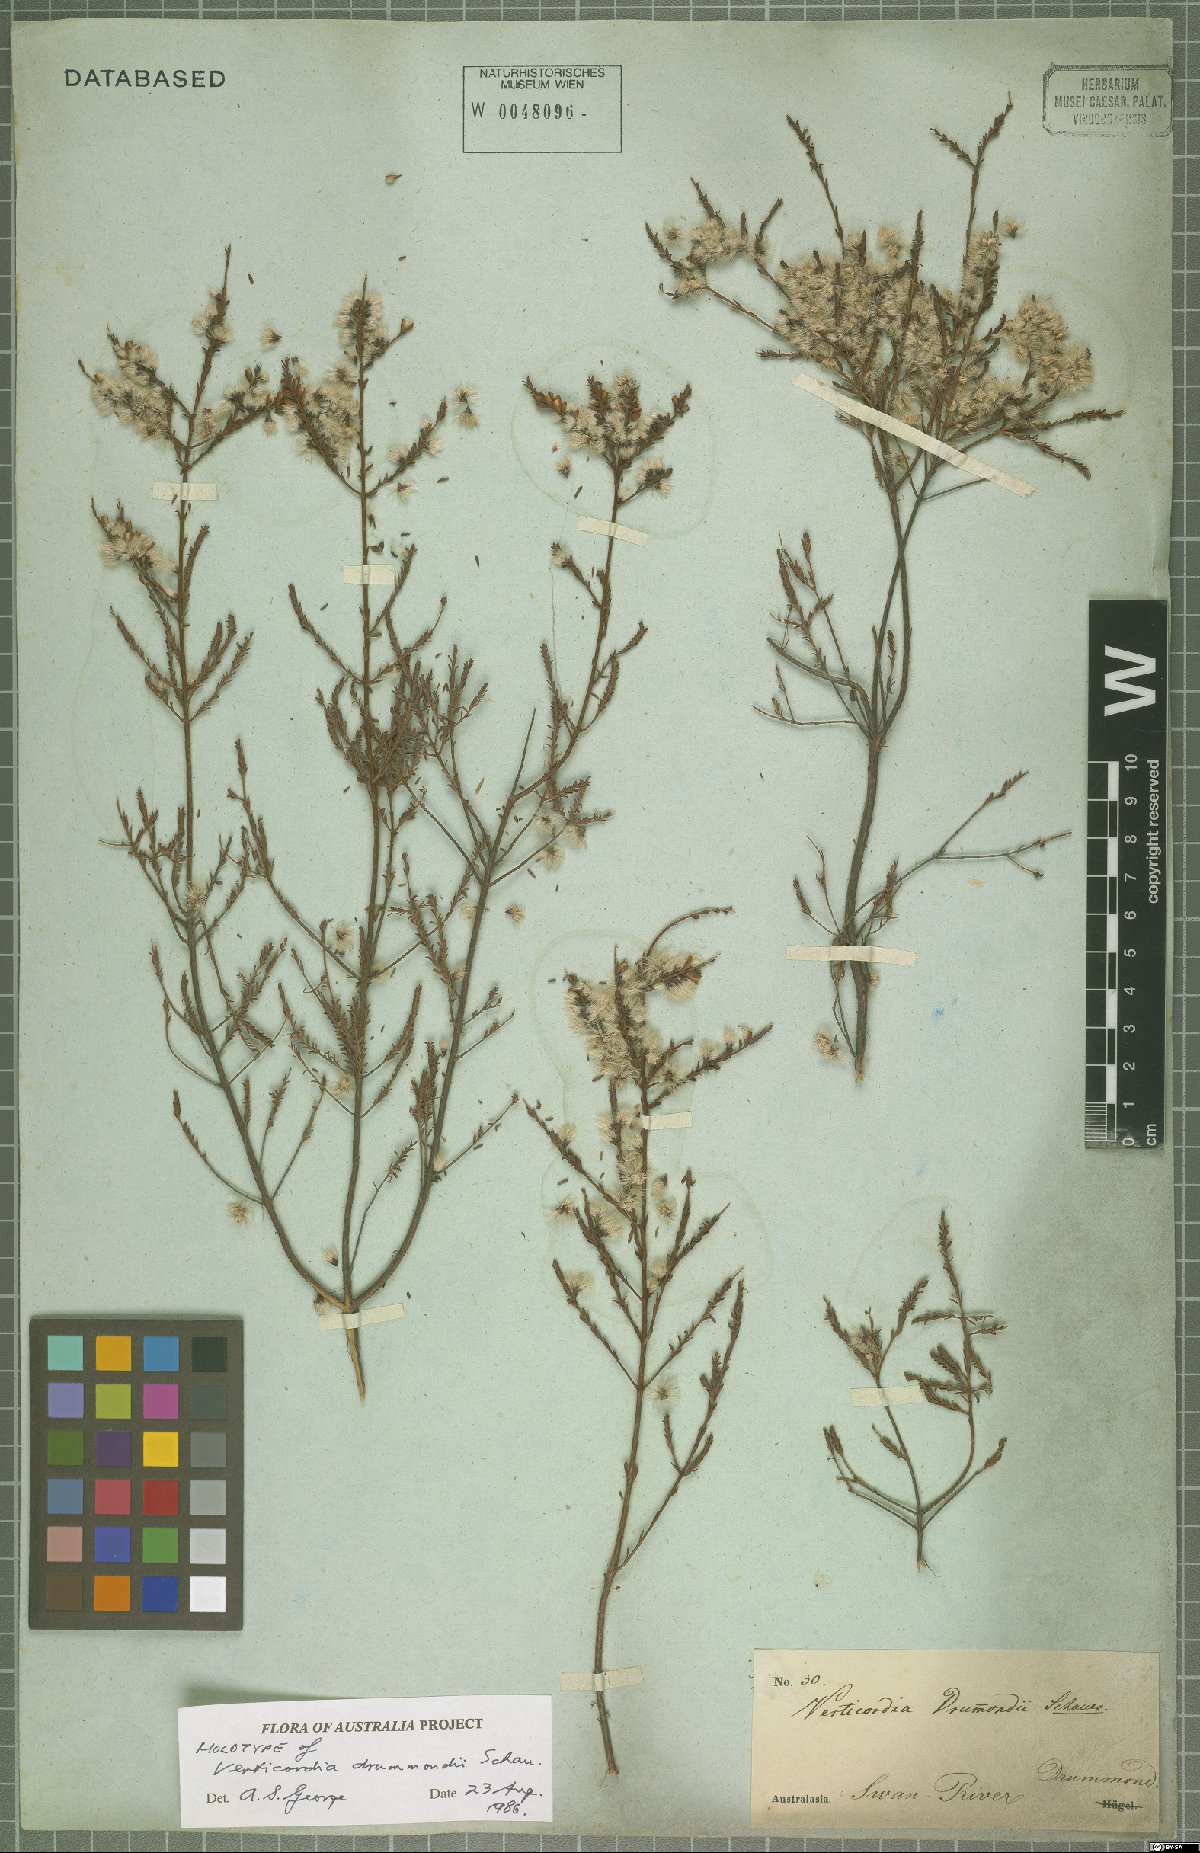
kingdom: Plantae
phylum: Tracheophyta
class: Magnoliopsida
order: Myrtales
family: Myrtaceae
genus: Verticordia
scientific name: Verticordia drummondii
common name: Drummond's feather-flower
